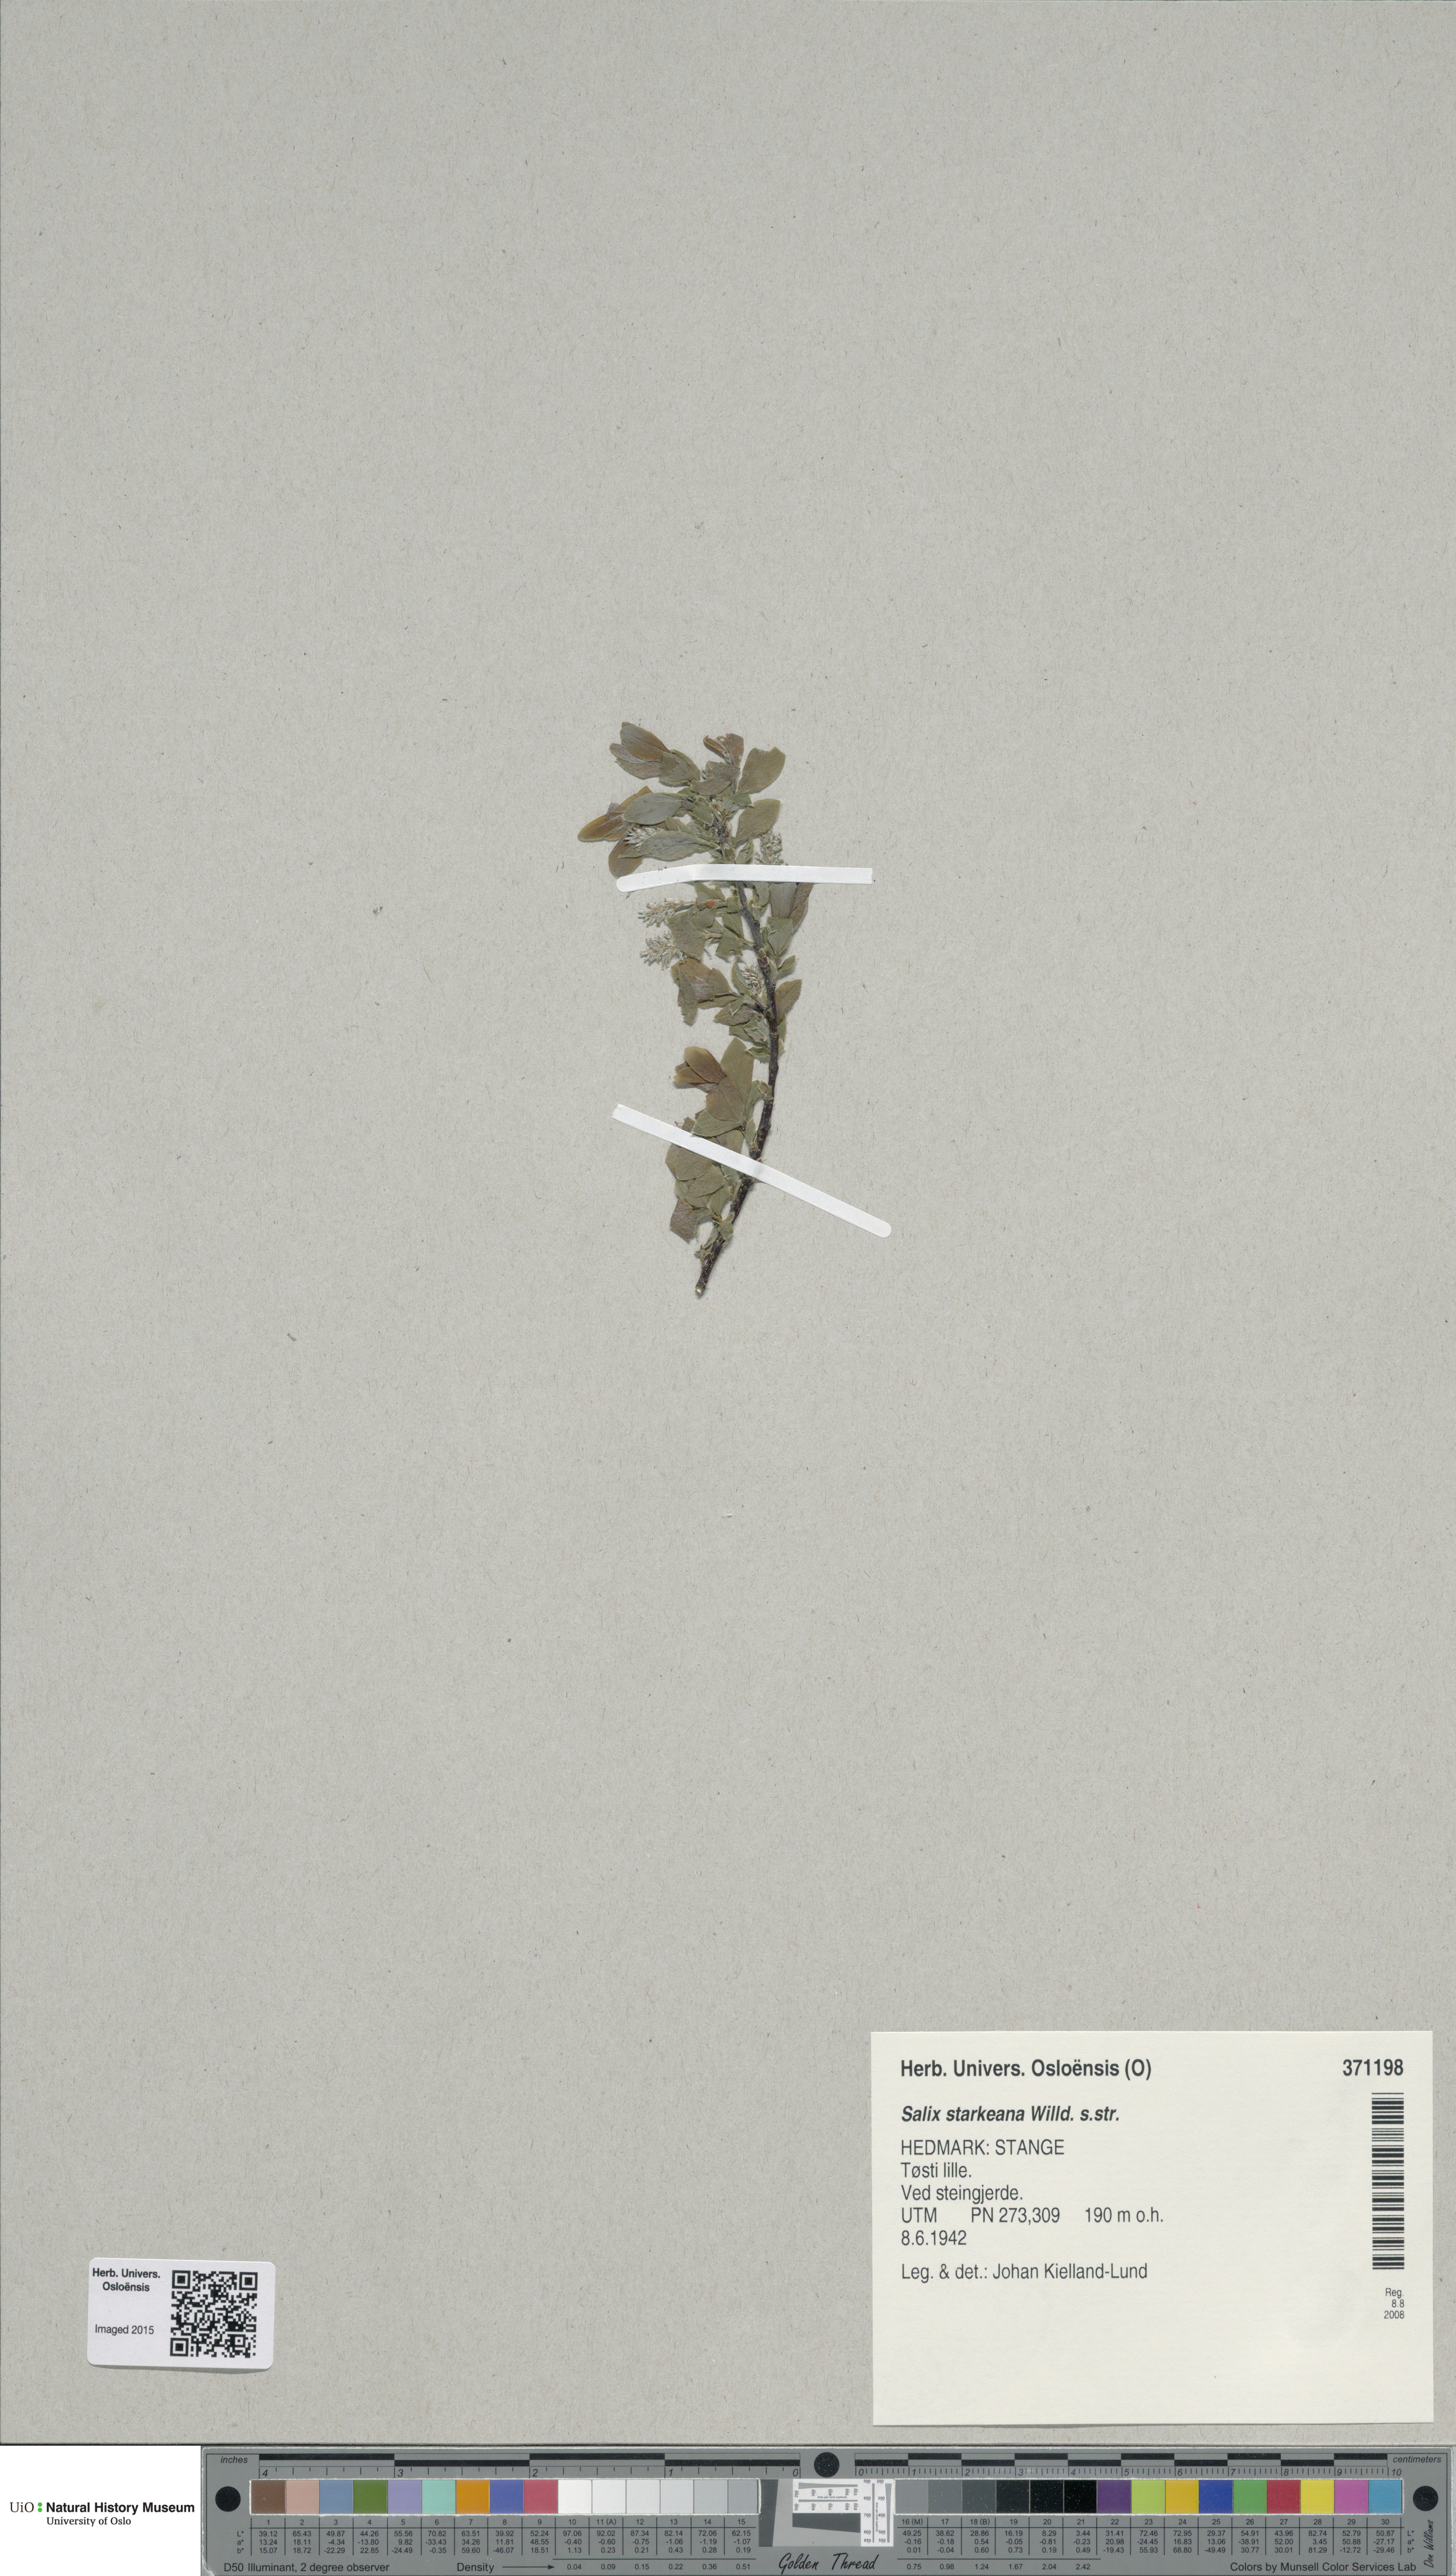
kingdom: Plantae
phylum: Tracheophyta
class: Magnoliopsida
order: Malpighiales
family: Salicaceae
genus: Salix
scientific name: Salix starkeana
